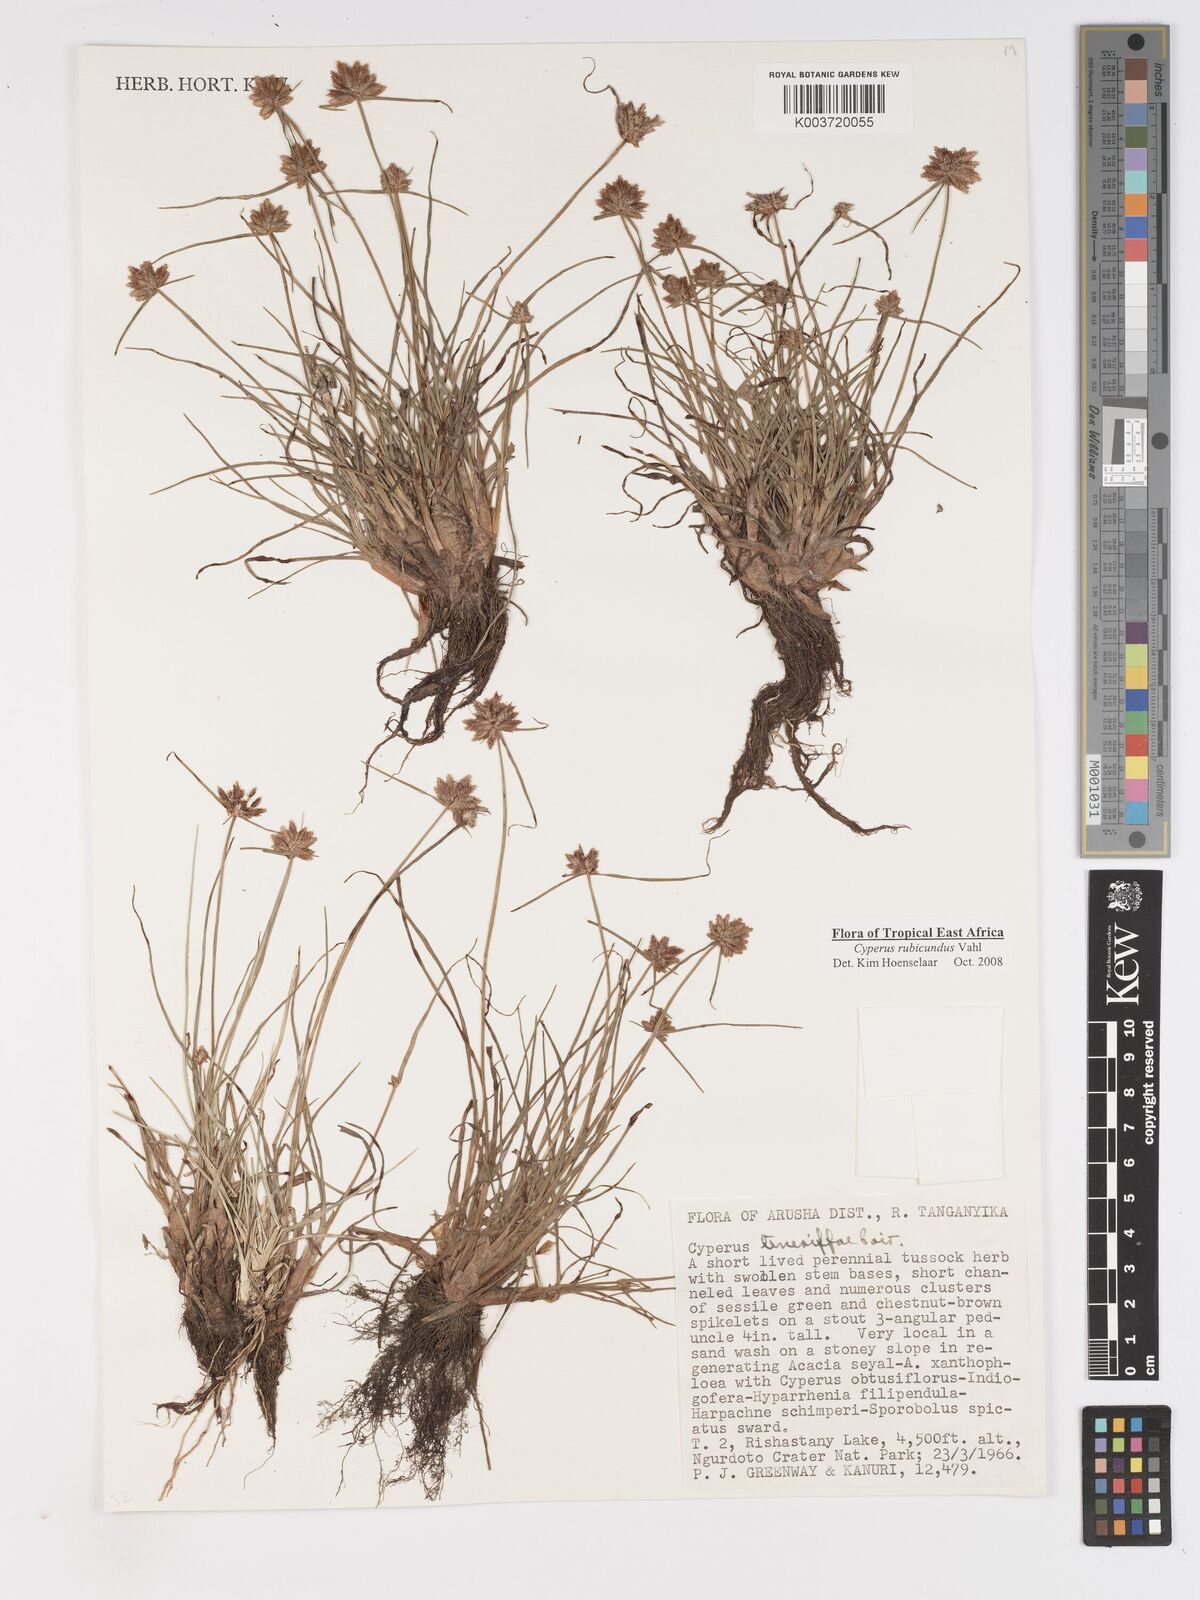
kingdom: Plantae
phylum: Tracheophyta
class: Liliopsida
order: Poales
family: Cyperaceae
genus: Cyperus
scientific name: Cyperus rubicundus
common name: Coco-grass
